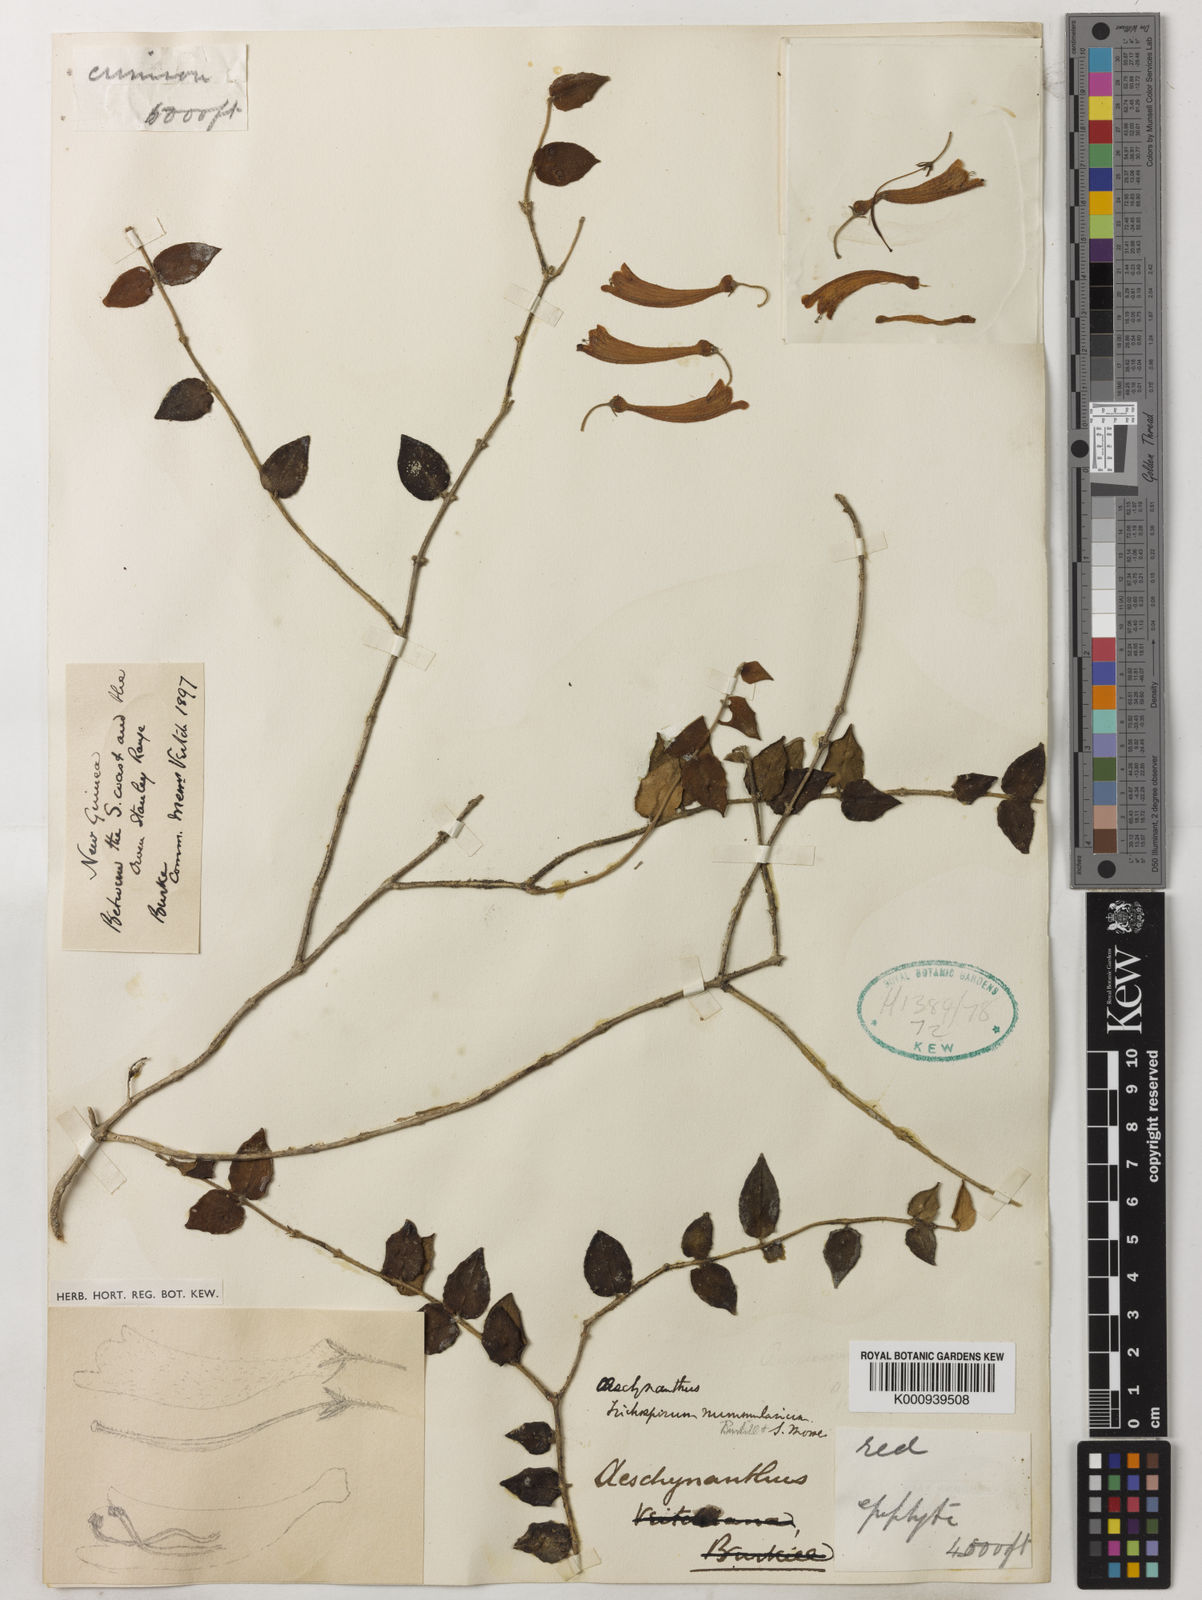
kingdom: Plantae
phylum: Tracheophyta
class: Magnoliopsida
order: Lamiales
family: Gesneriaceae
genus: Aeschynanthus
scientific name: Aeschynanthus nummularius
